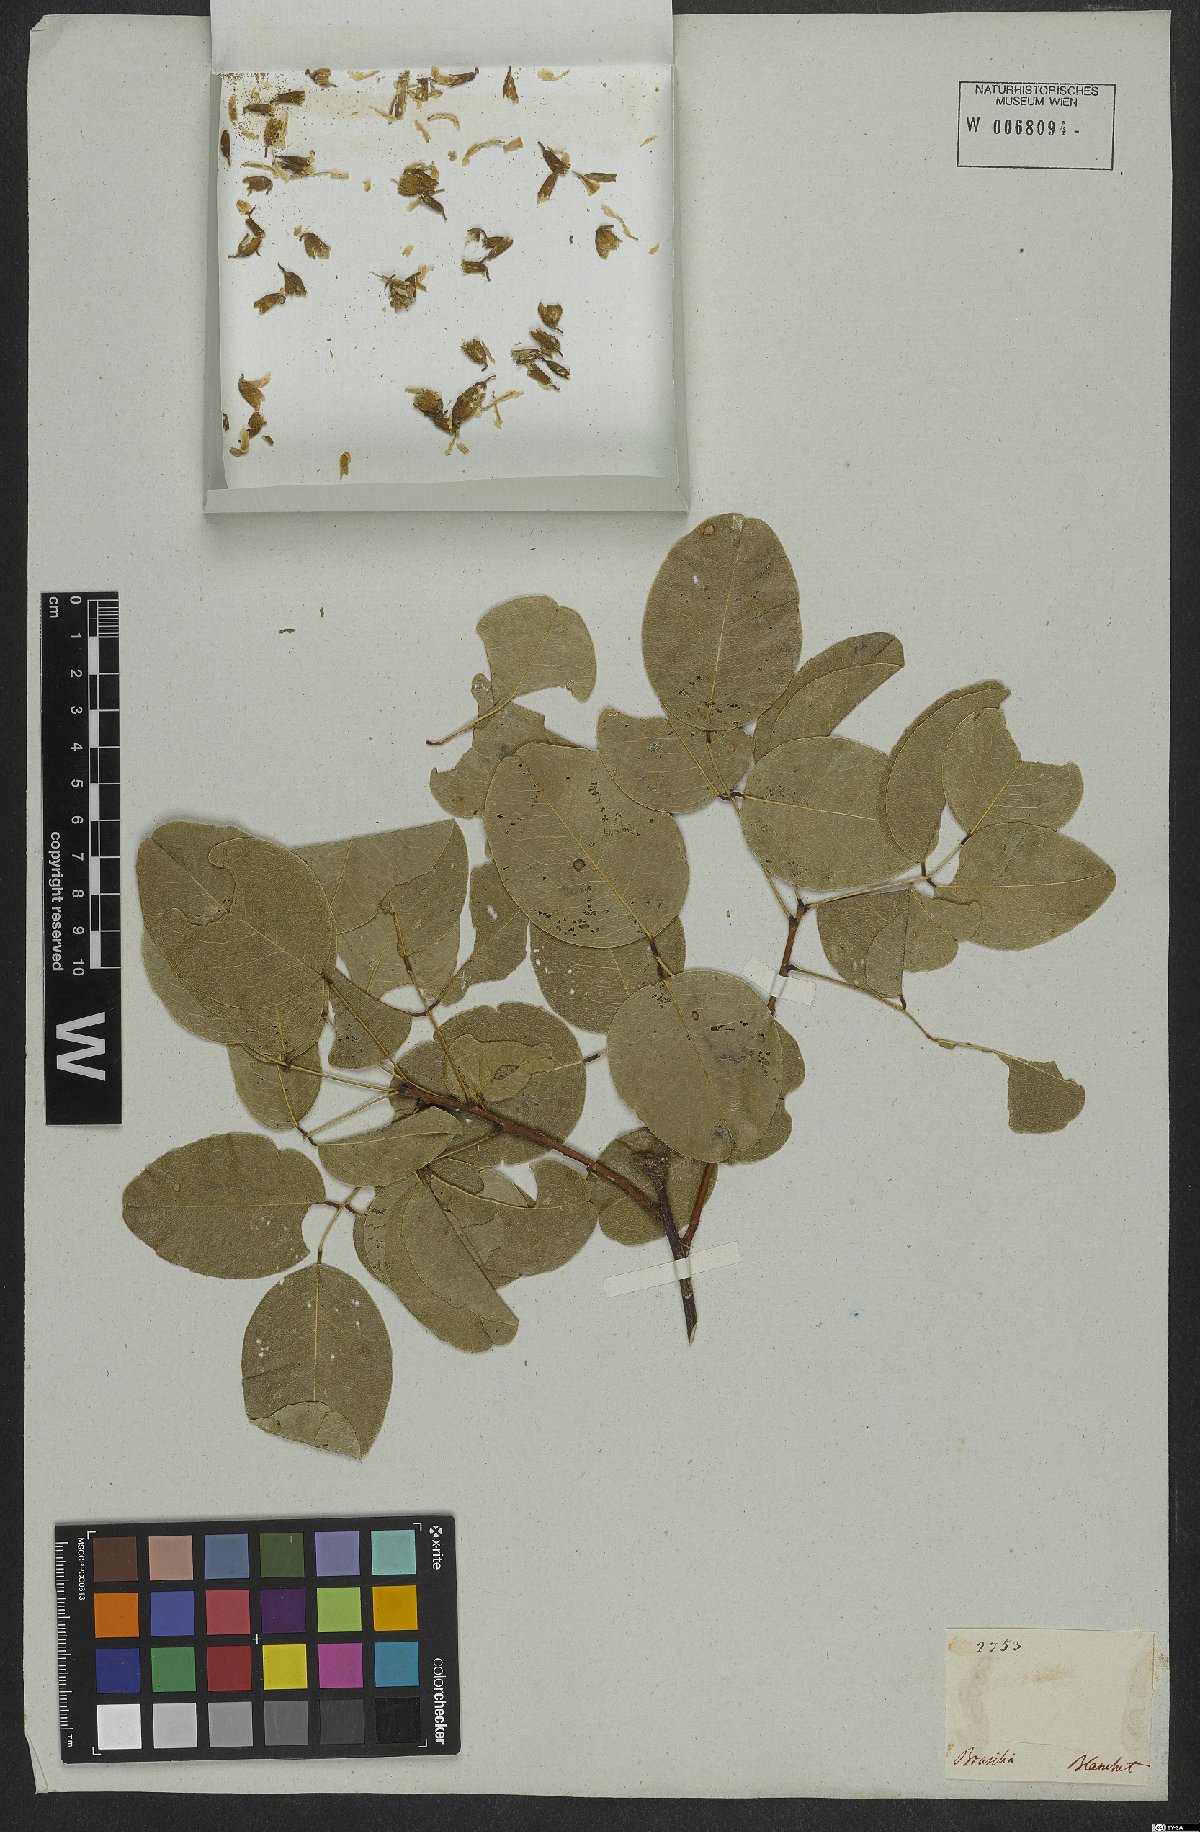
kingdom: Plantae
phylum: Tracheophyta
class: Magnoliopsida
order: Fabales
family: Fabaceae
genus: Vatairea
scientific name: Vatairea macrocarpa
